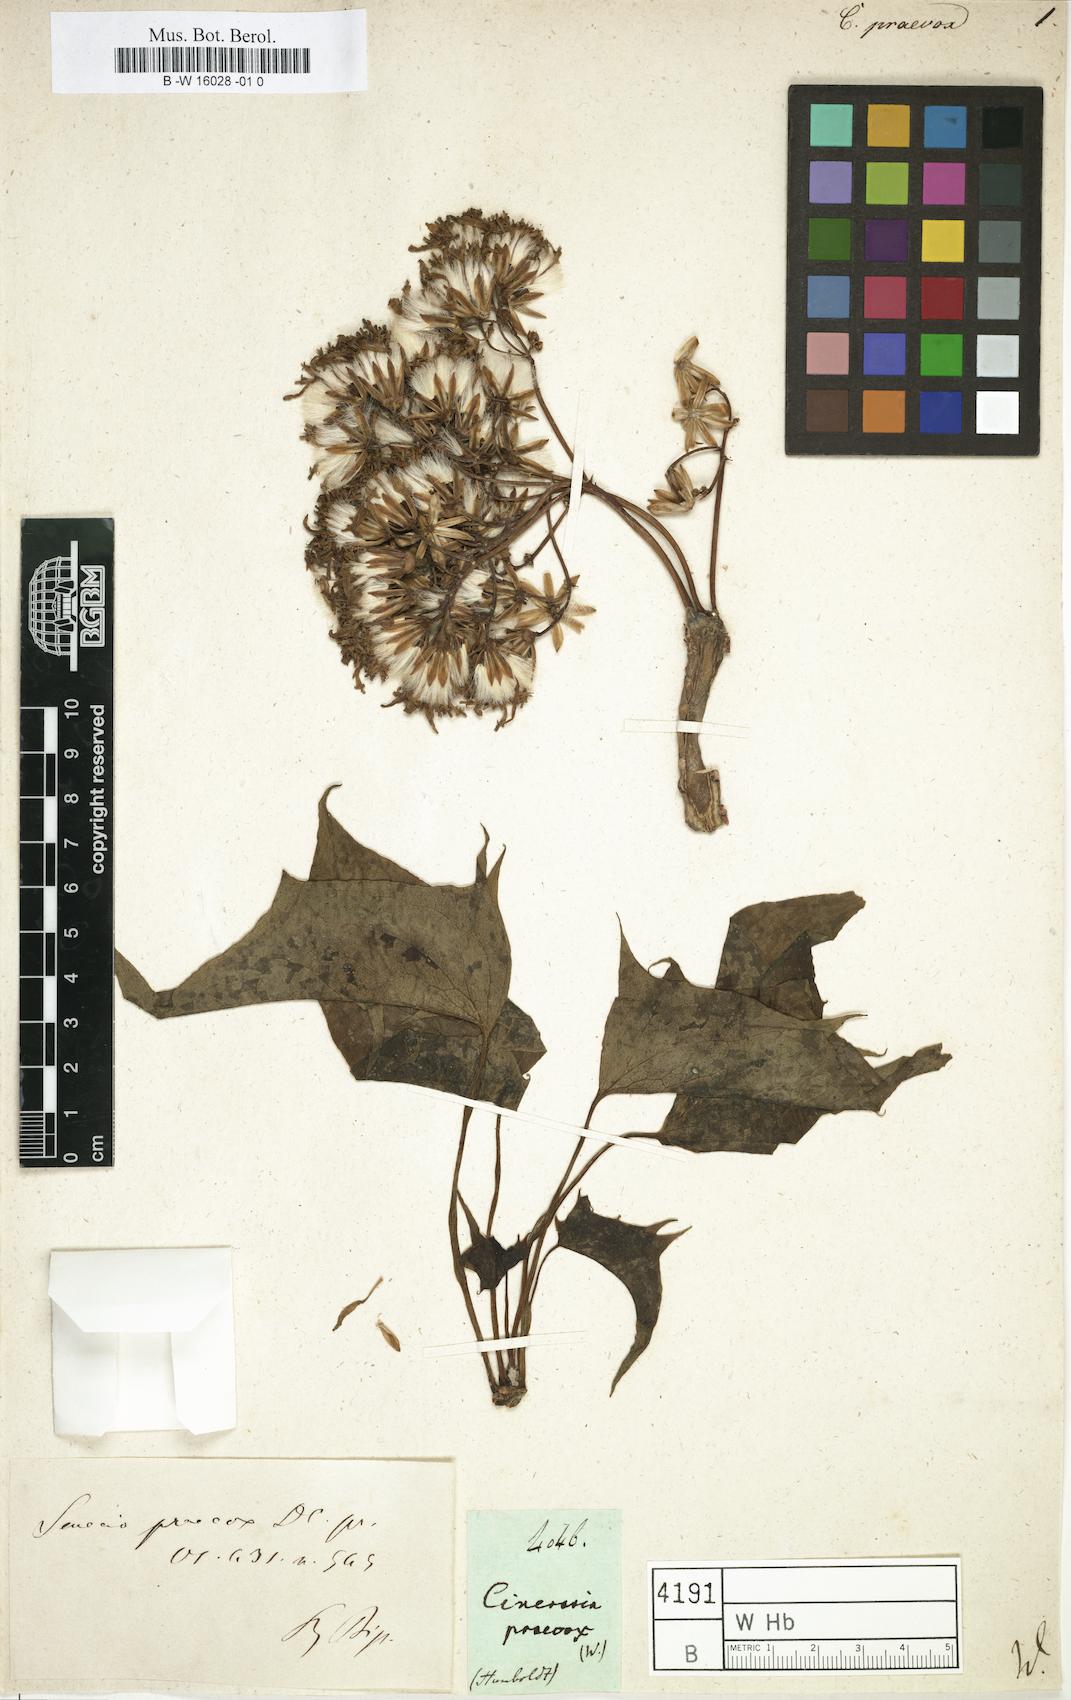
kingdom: Plantae
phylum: Tracheophyta
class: Magnoliopsida
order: Asterales
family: Asteraceae
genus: Pittocaulon
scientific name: Pittocaulon praecox
